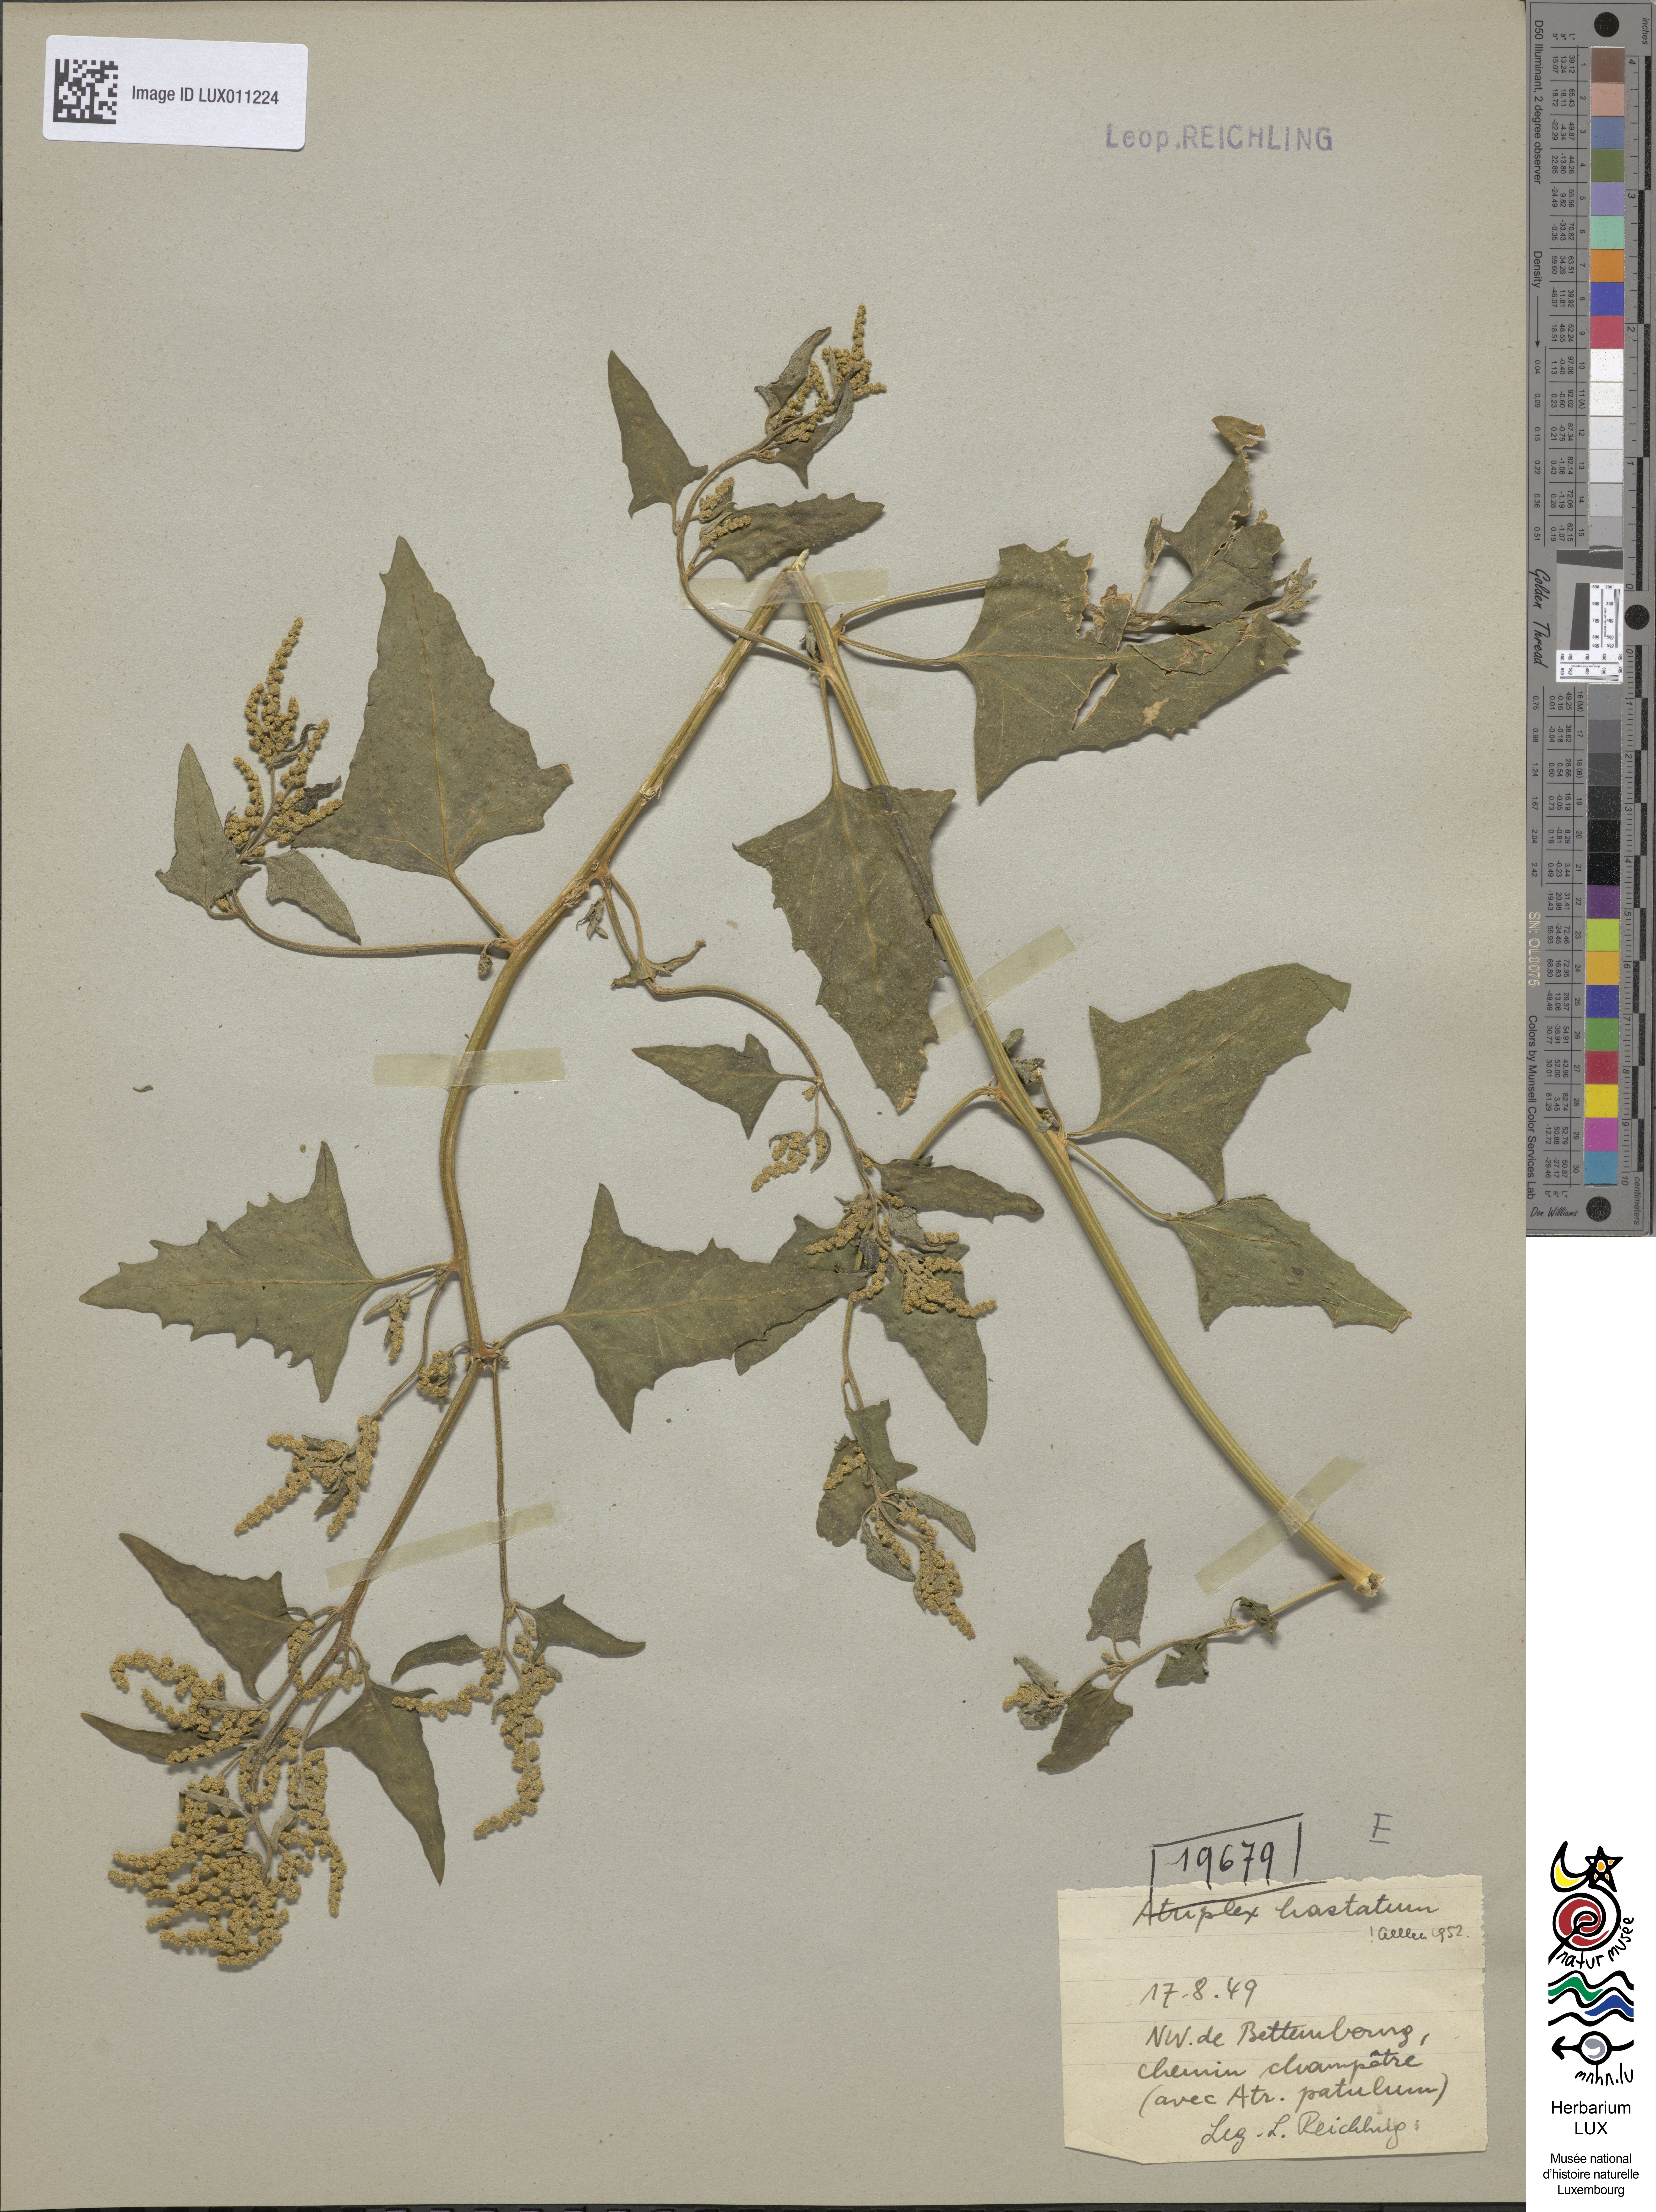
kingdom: Plantae
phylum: Tracheophyta
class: Magnoliopsida
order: Caryophyllales
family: Amaranthaceae
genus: Atriplex
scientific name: Atriplex calotheca
